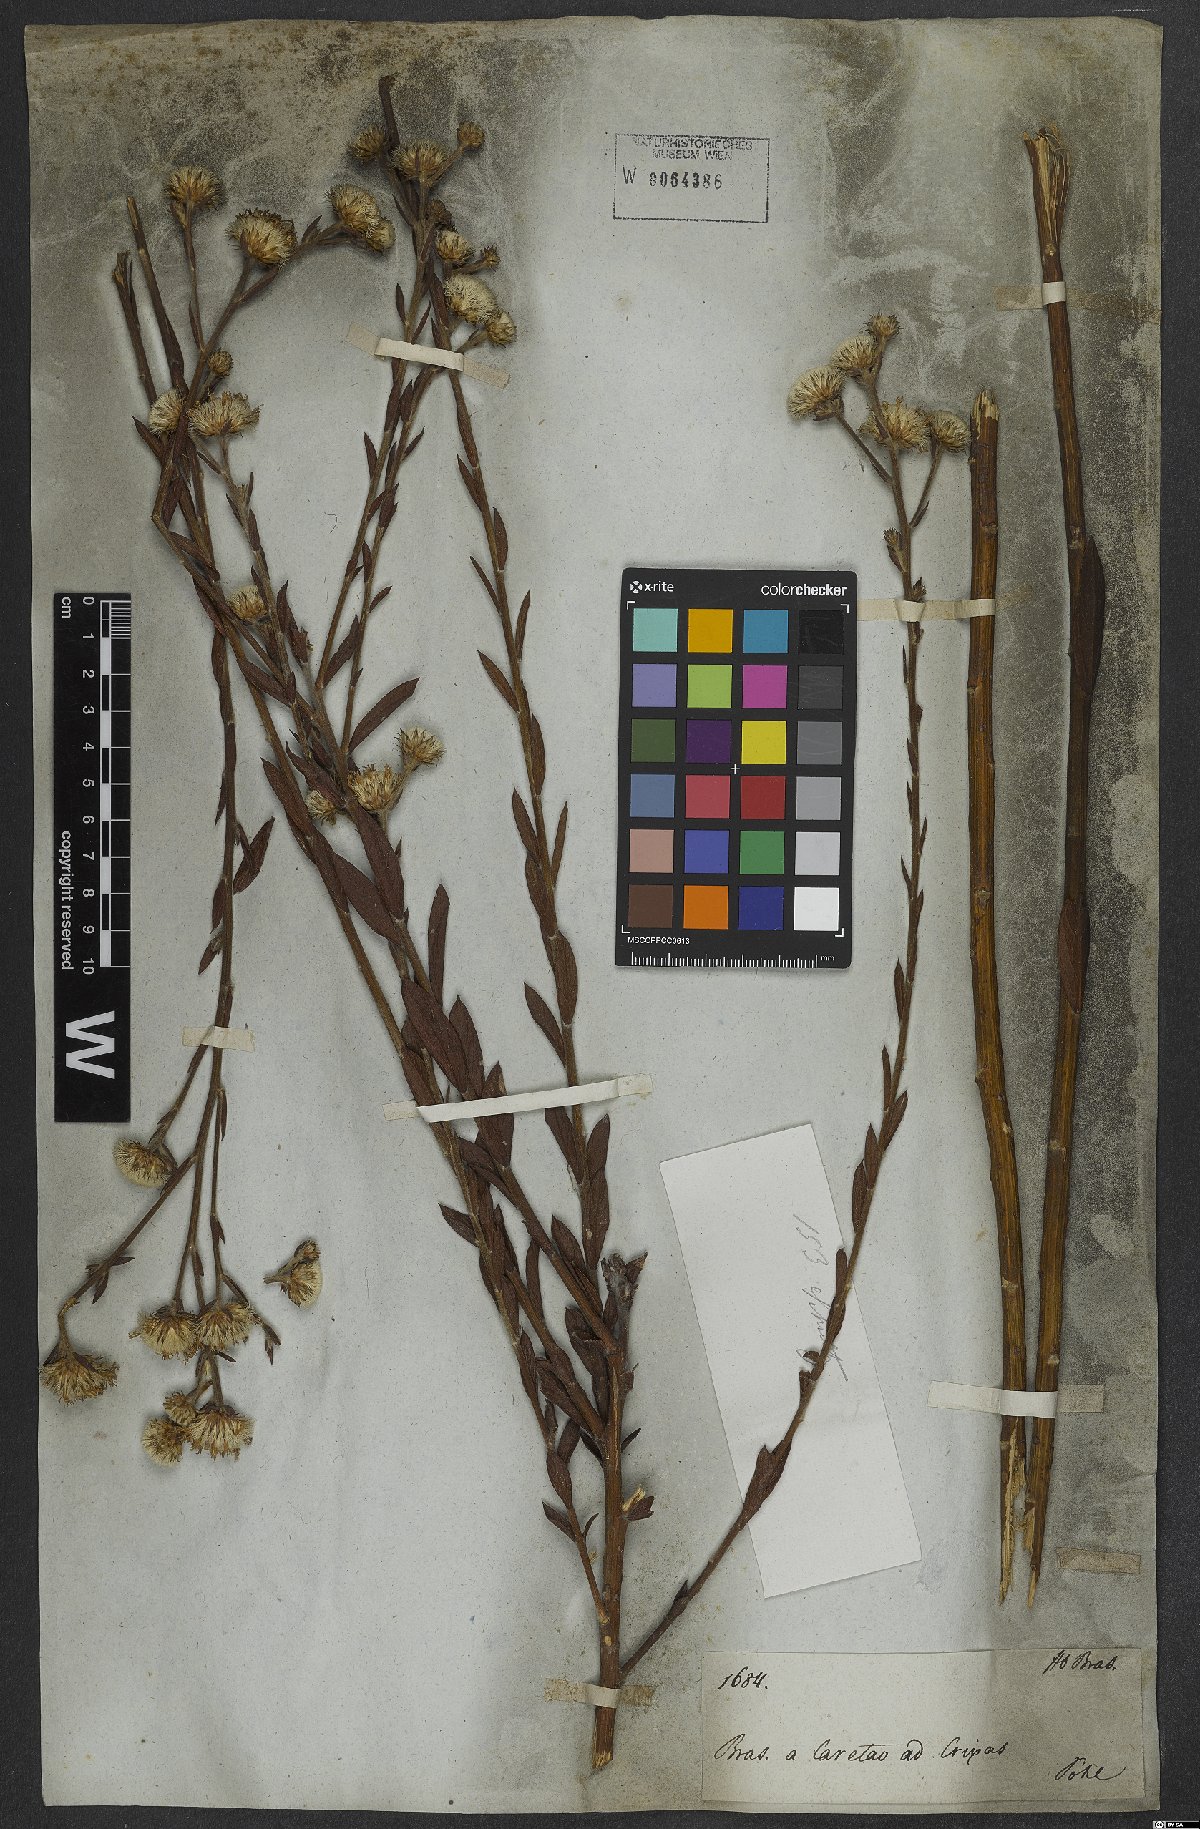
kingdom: Plantae
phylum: Tracheophyta
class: Magnoliopsida
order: Asterales
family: Asteraceae
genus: Lessingianthus
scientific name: Lessingianthus durus
